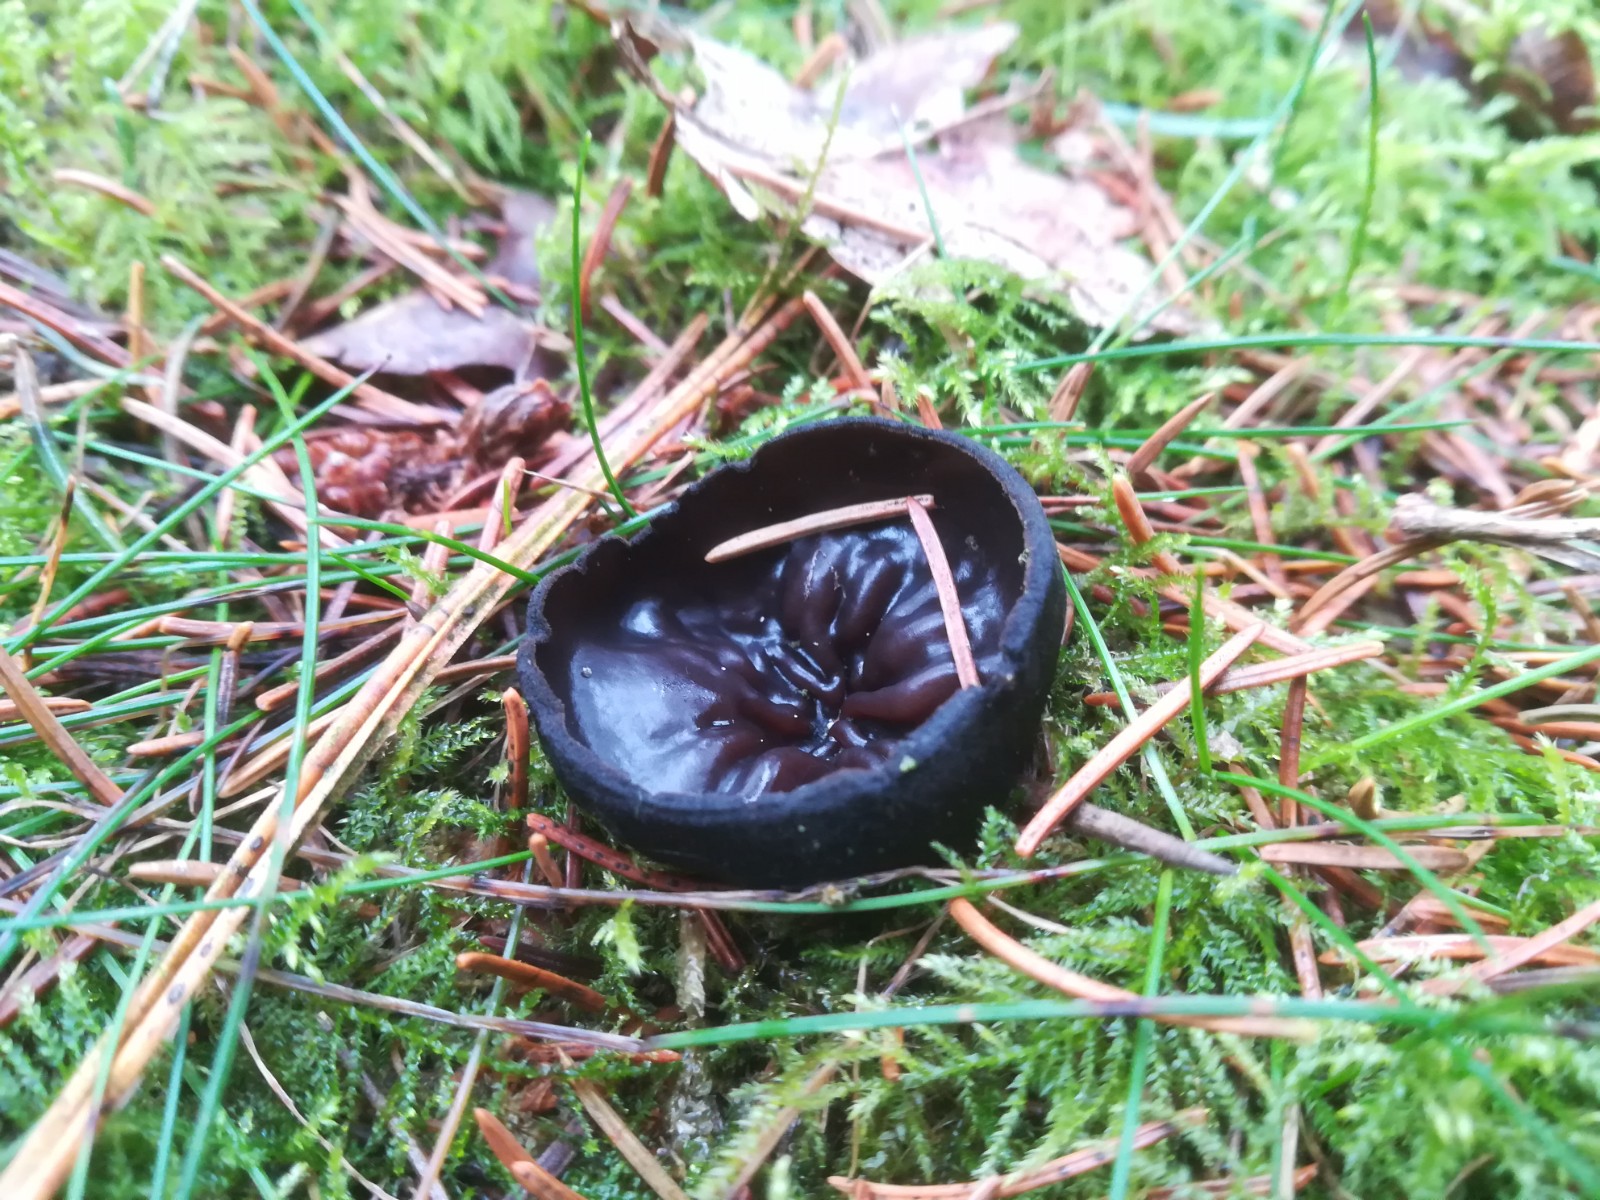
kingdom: Fungi
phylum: Ascomycota
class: Pezizomycetes
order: Pezizales
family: Sarcosomataceae
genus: Pseudoplectania
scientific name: Pseudoplectania nigrella
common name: almindelig sortbæger
